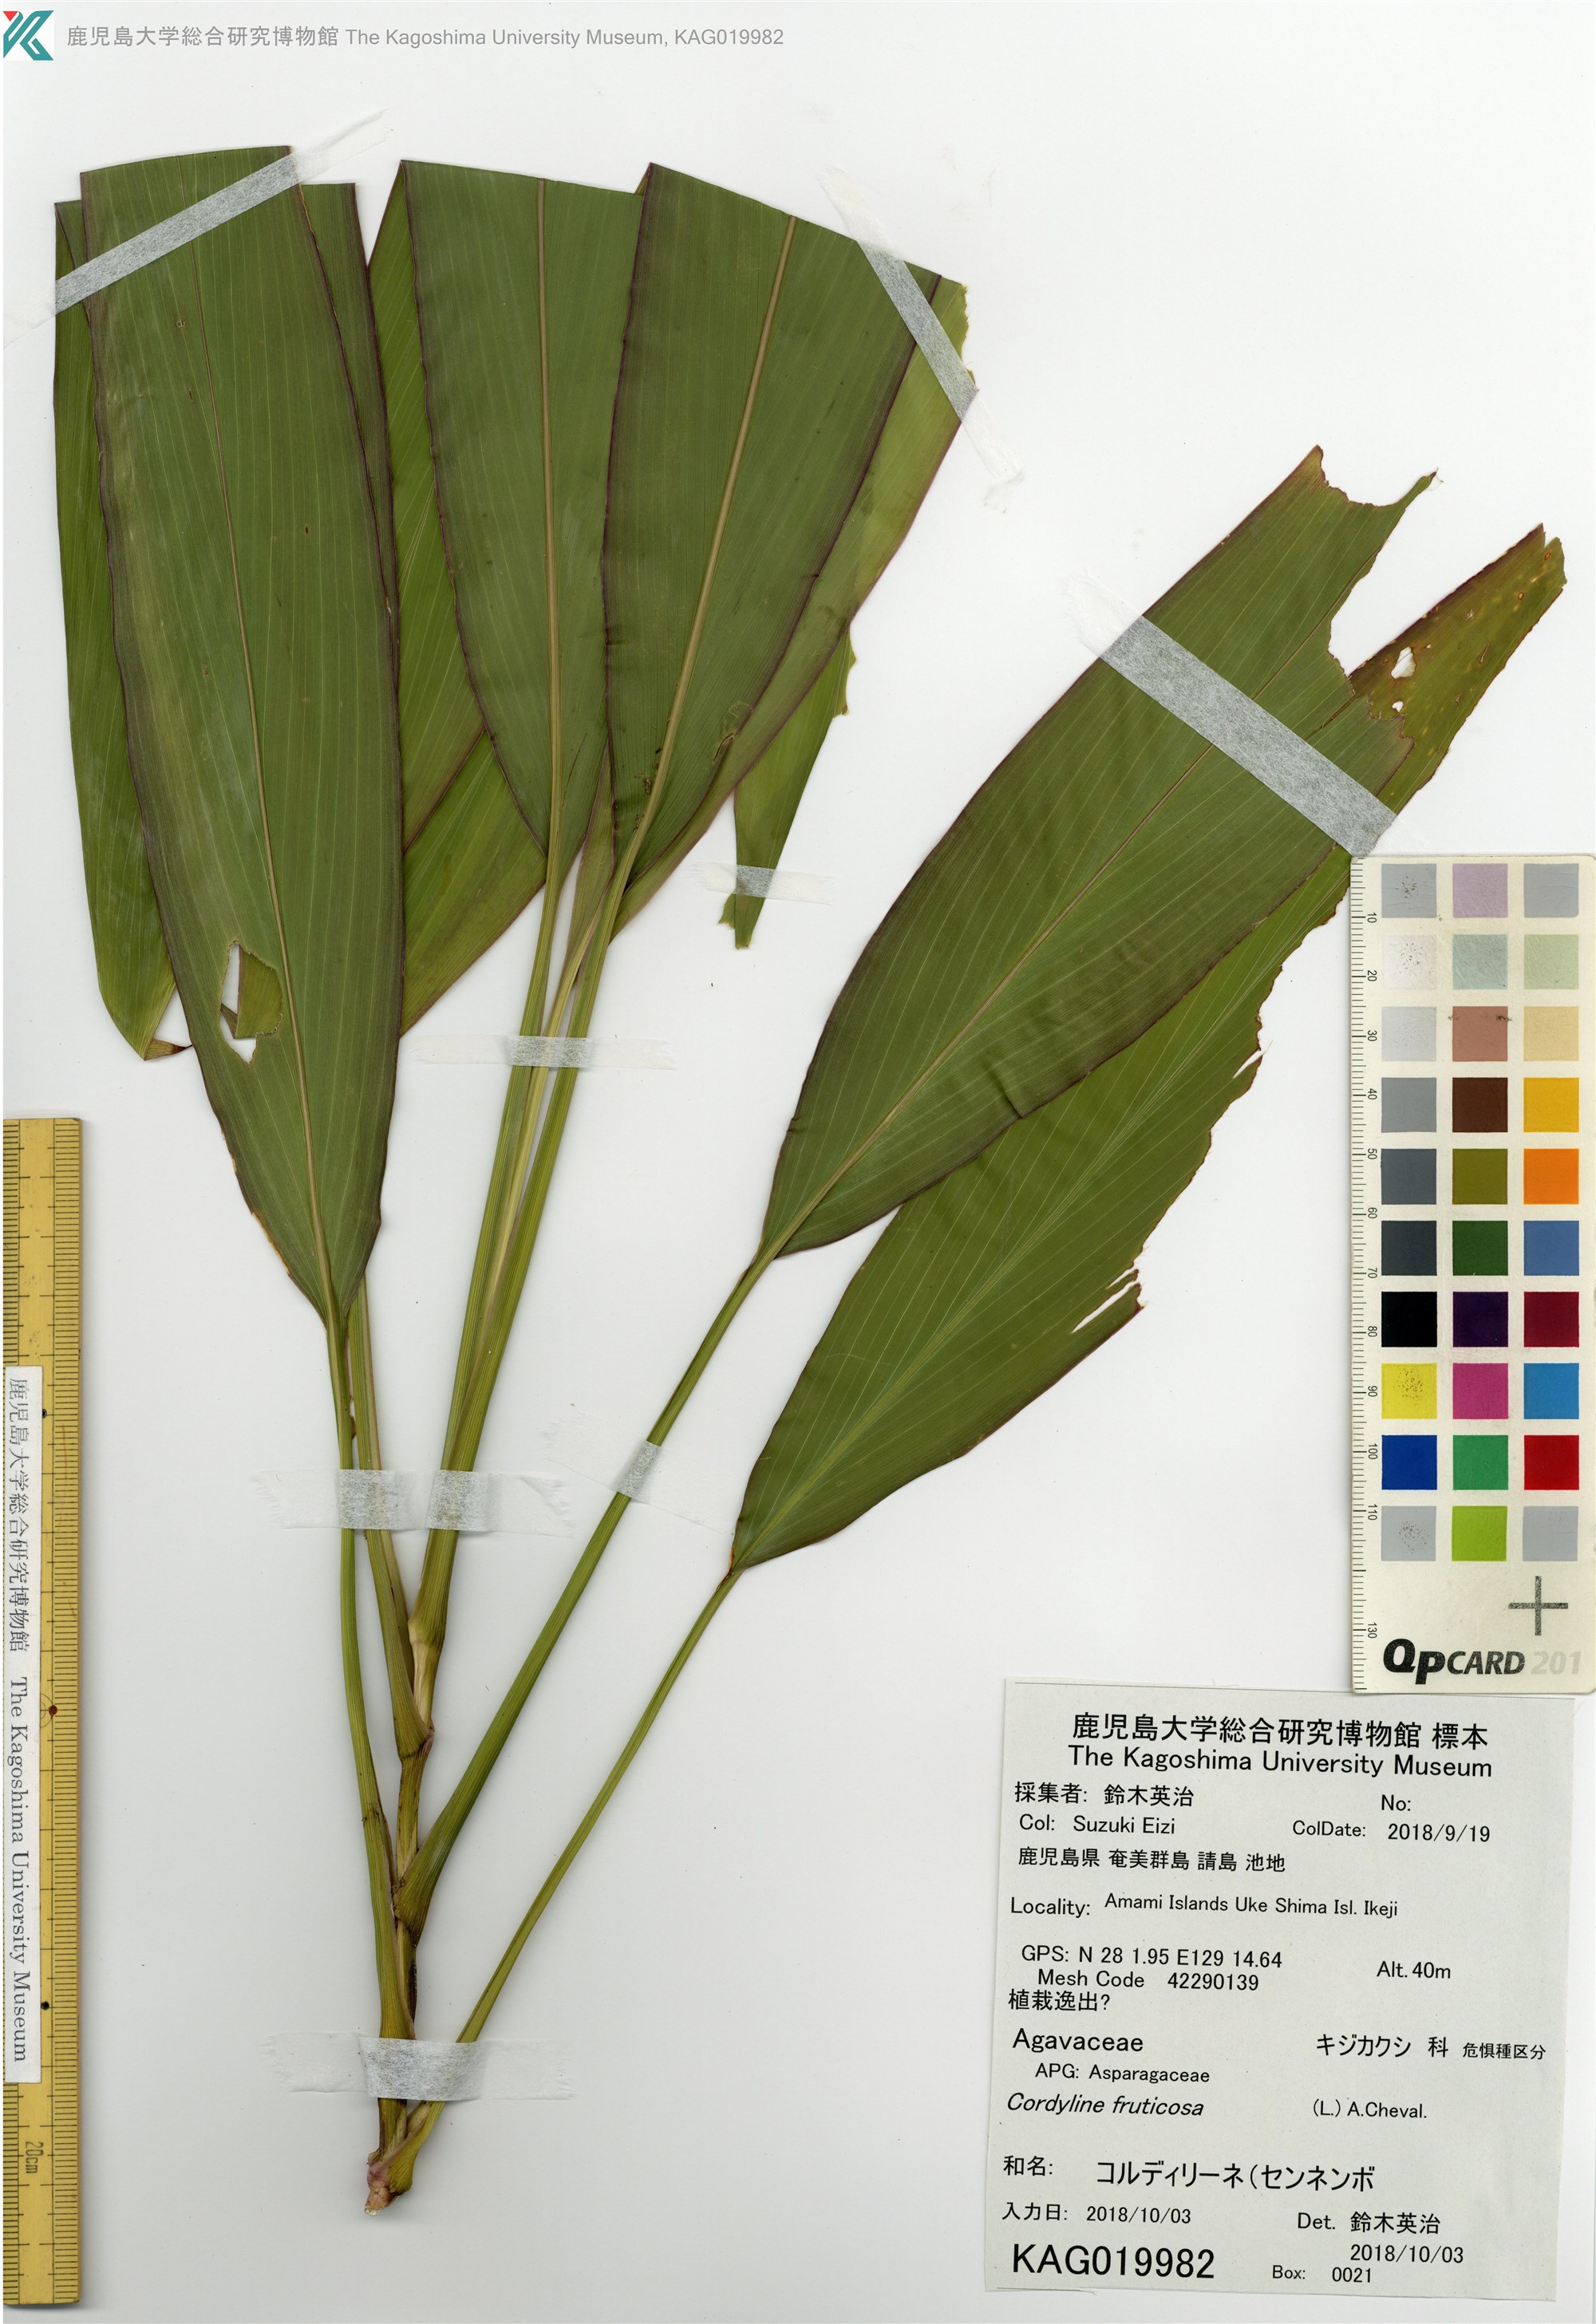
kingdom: Plantae
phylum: Tracheophyta
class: Liliopsida
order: Asparagales
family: Asparagaceae
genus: Cordyline
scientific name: Cordyline fruticosa
